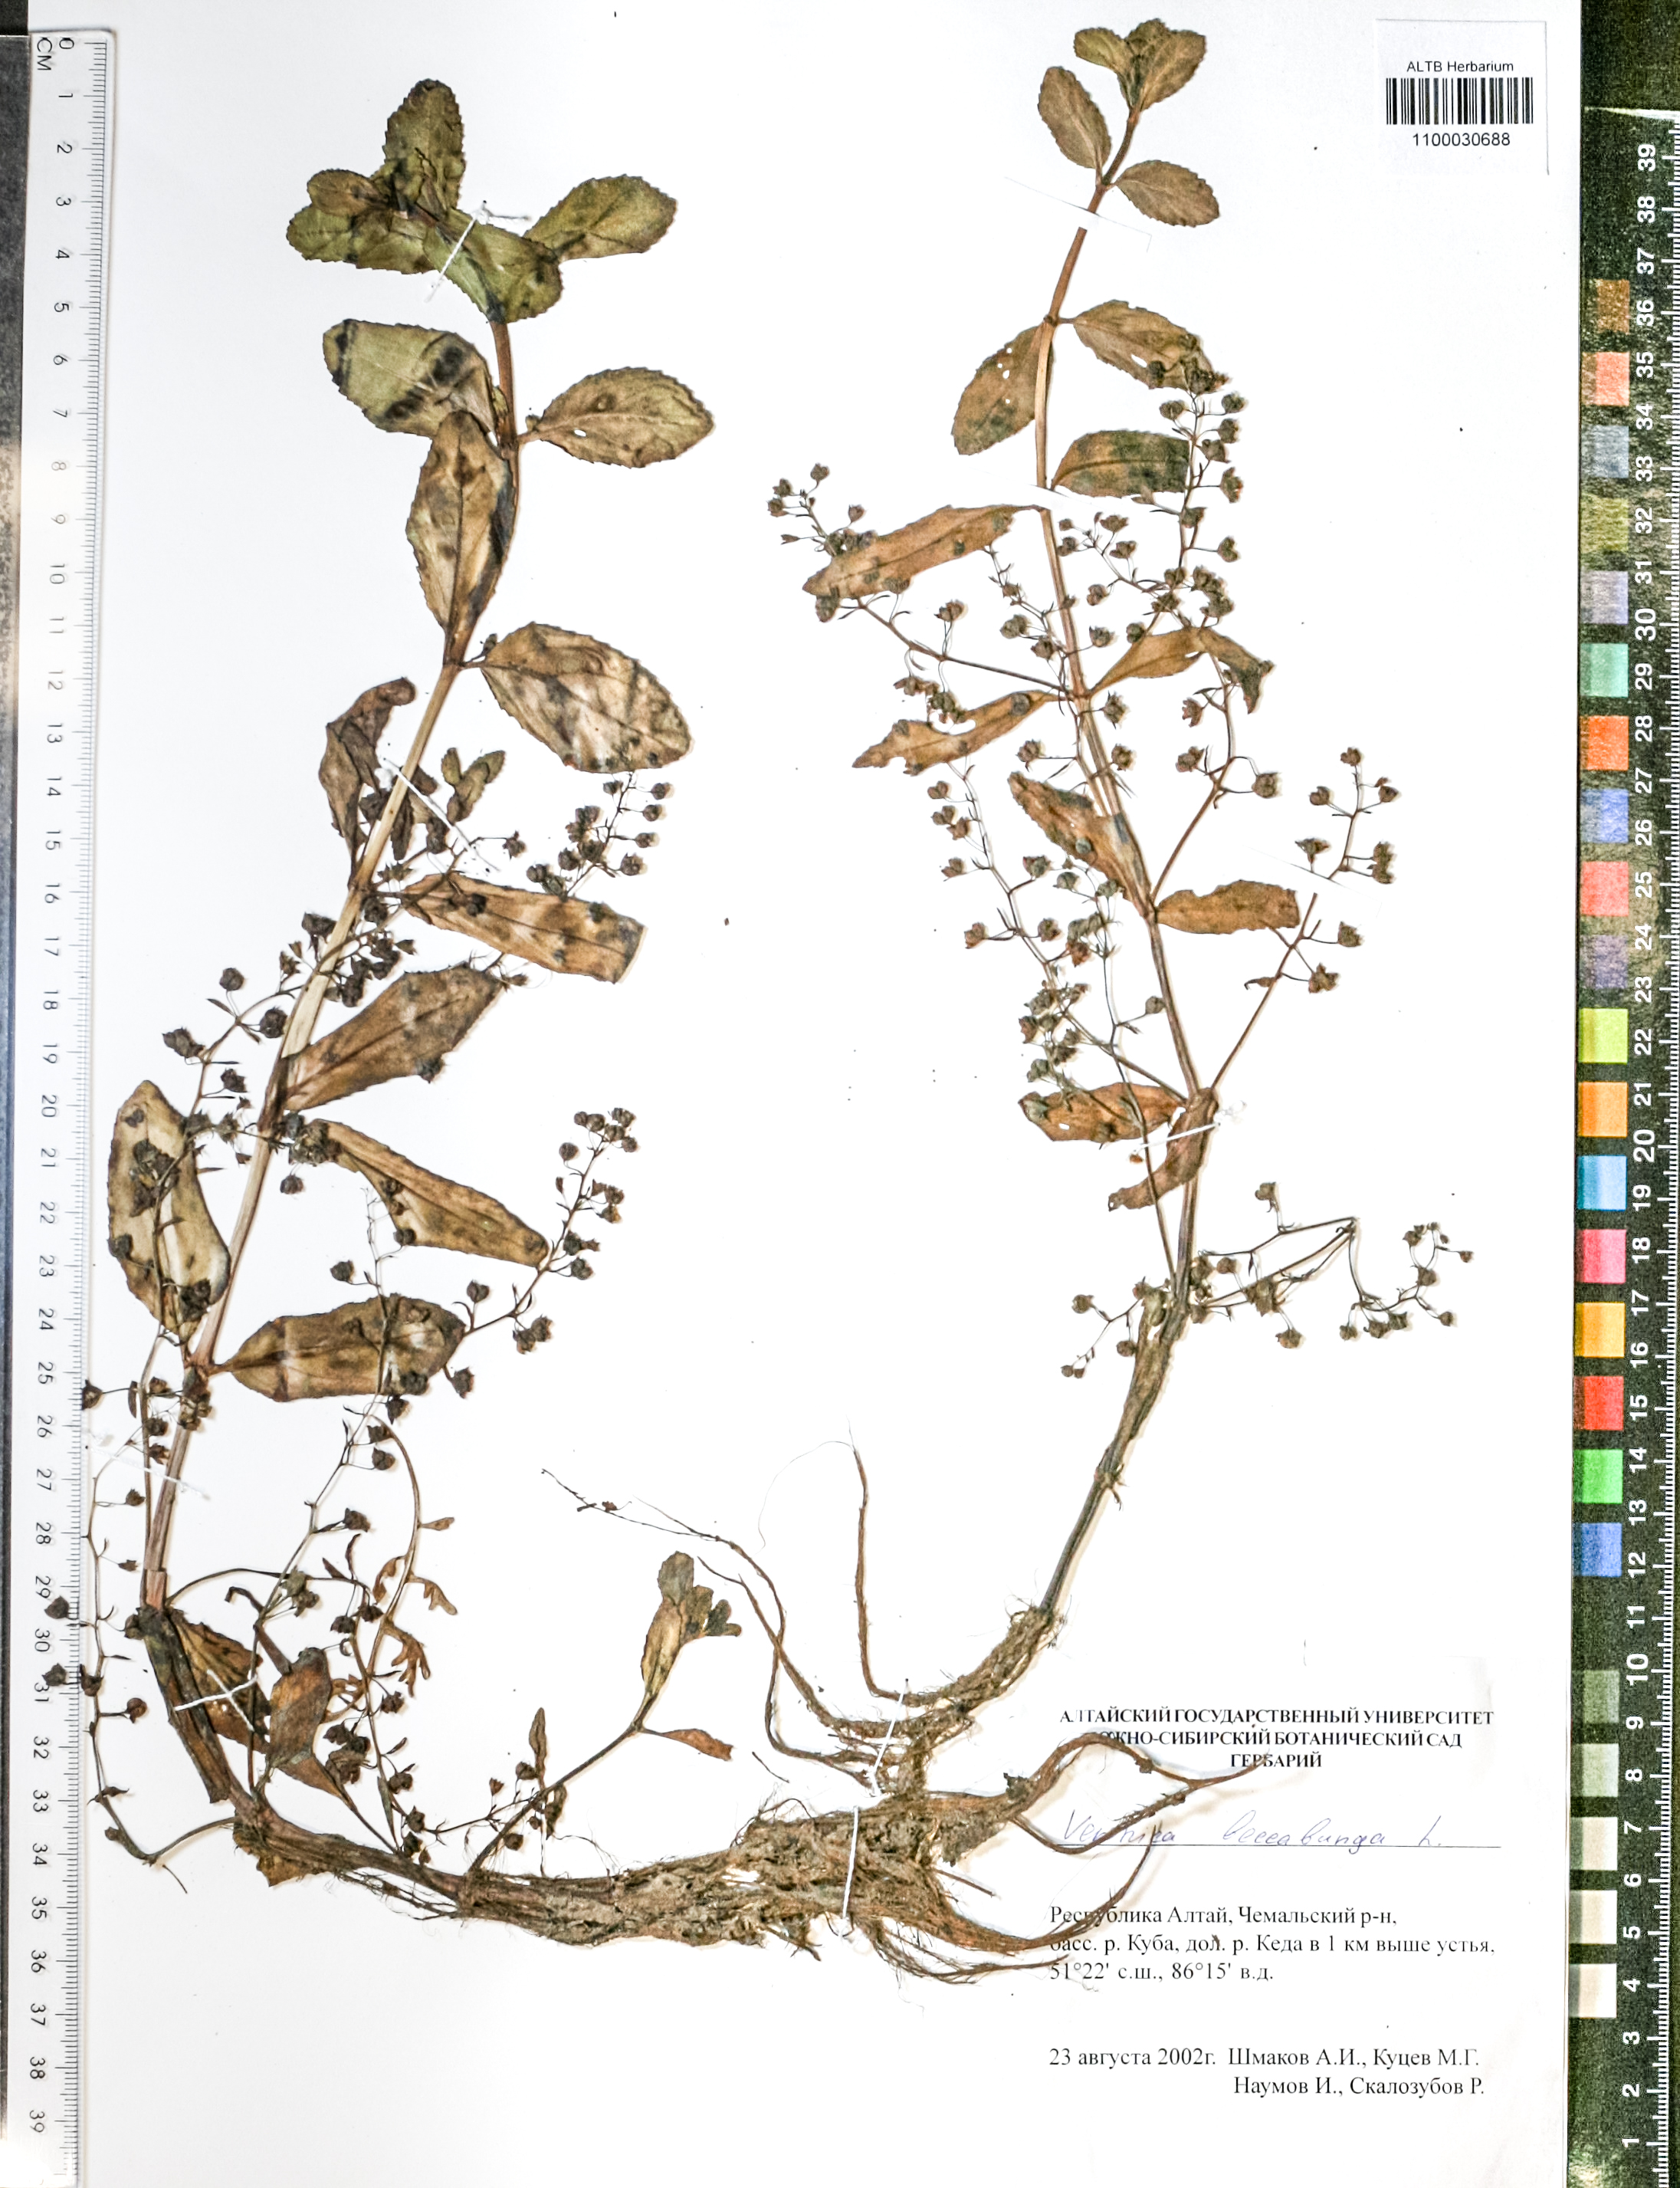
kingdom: Plantae
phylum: Tracheophyta
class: Magnoliopsida
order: Lamiales
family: Plantaginaceae
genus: Veronica
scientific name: Veronica beccabunga
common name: Brooklime
